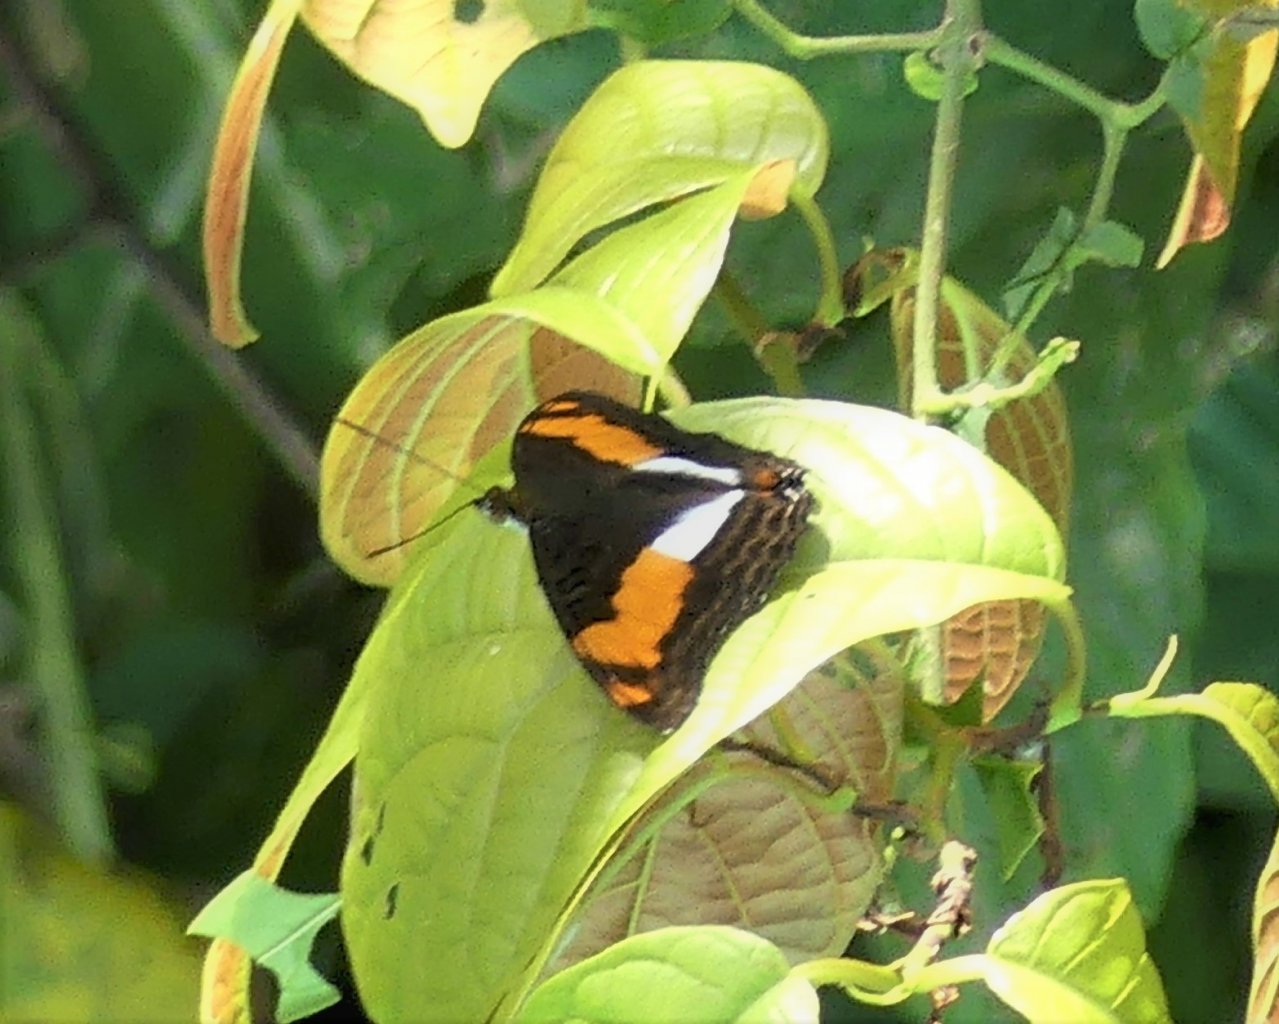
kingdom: Animalia
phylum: Arthropoda
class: Insecta
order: Lepidoptera
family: Nymphalidae
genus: Limenitis
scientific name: Limenitis Adelpha erotia
